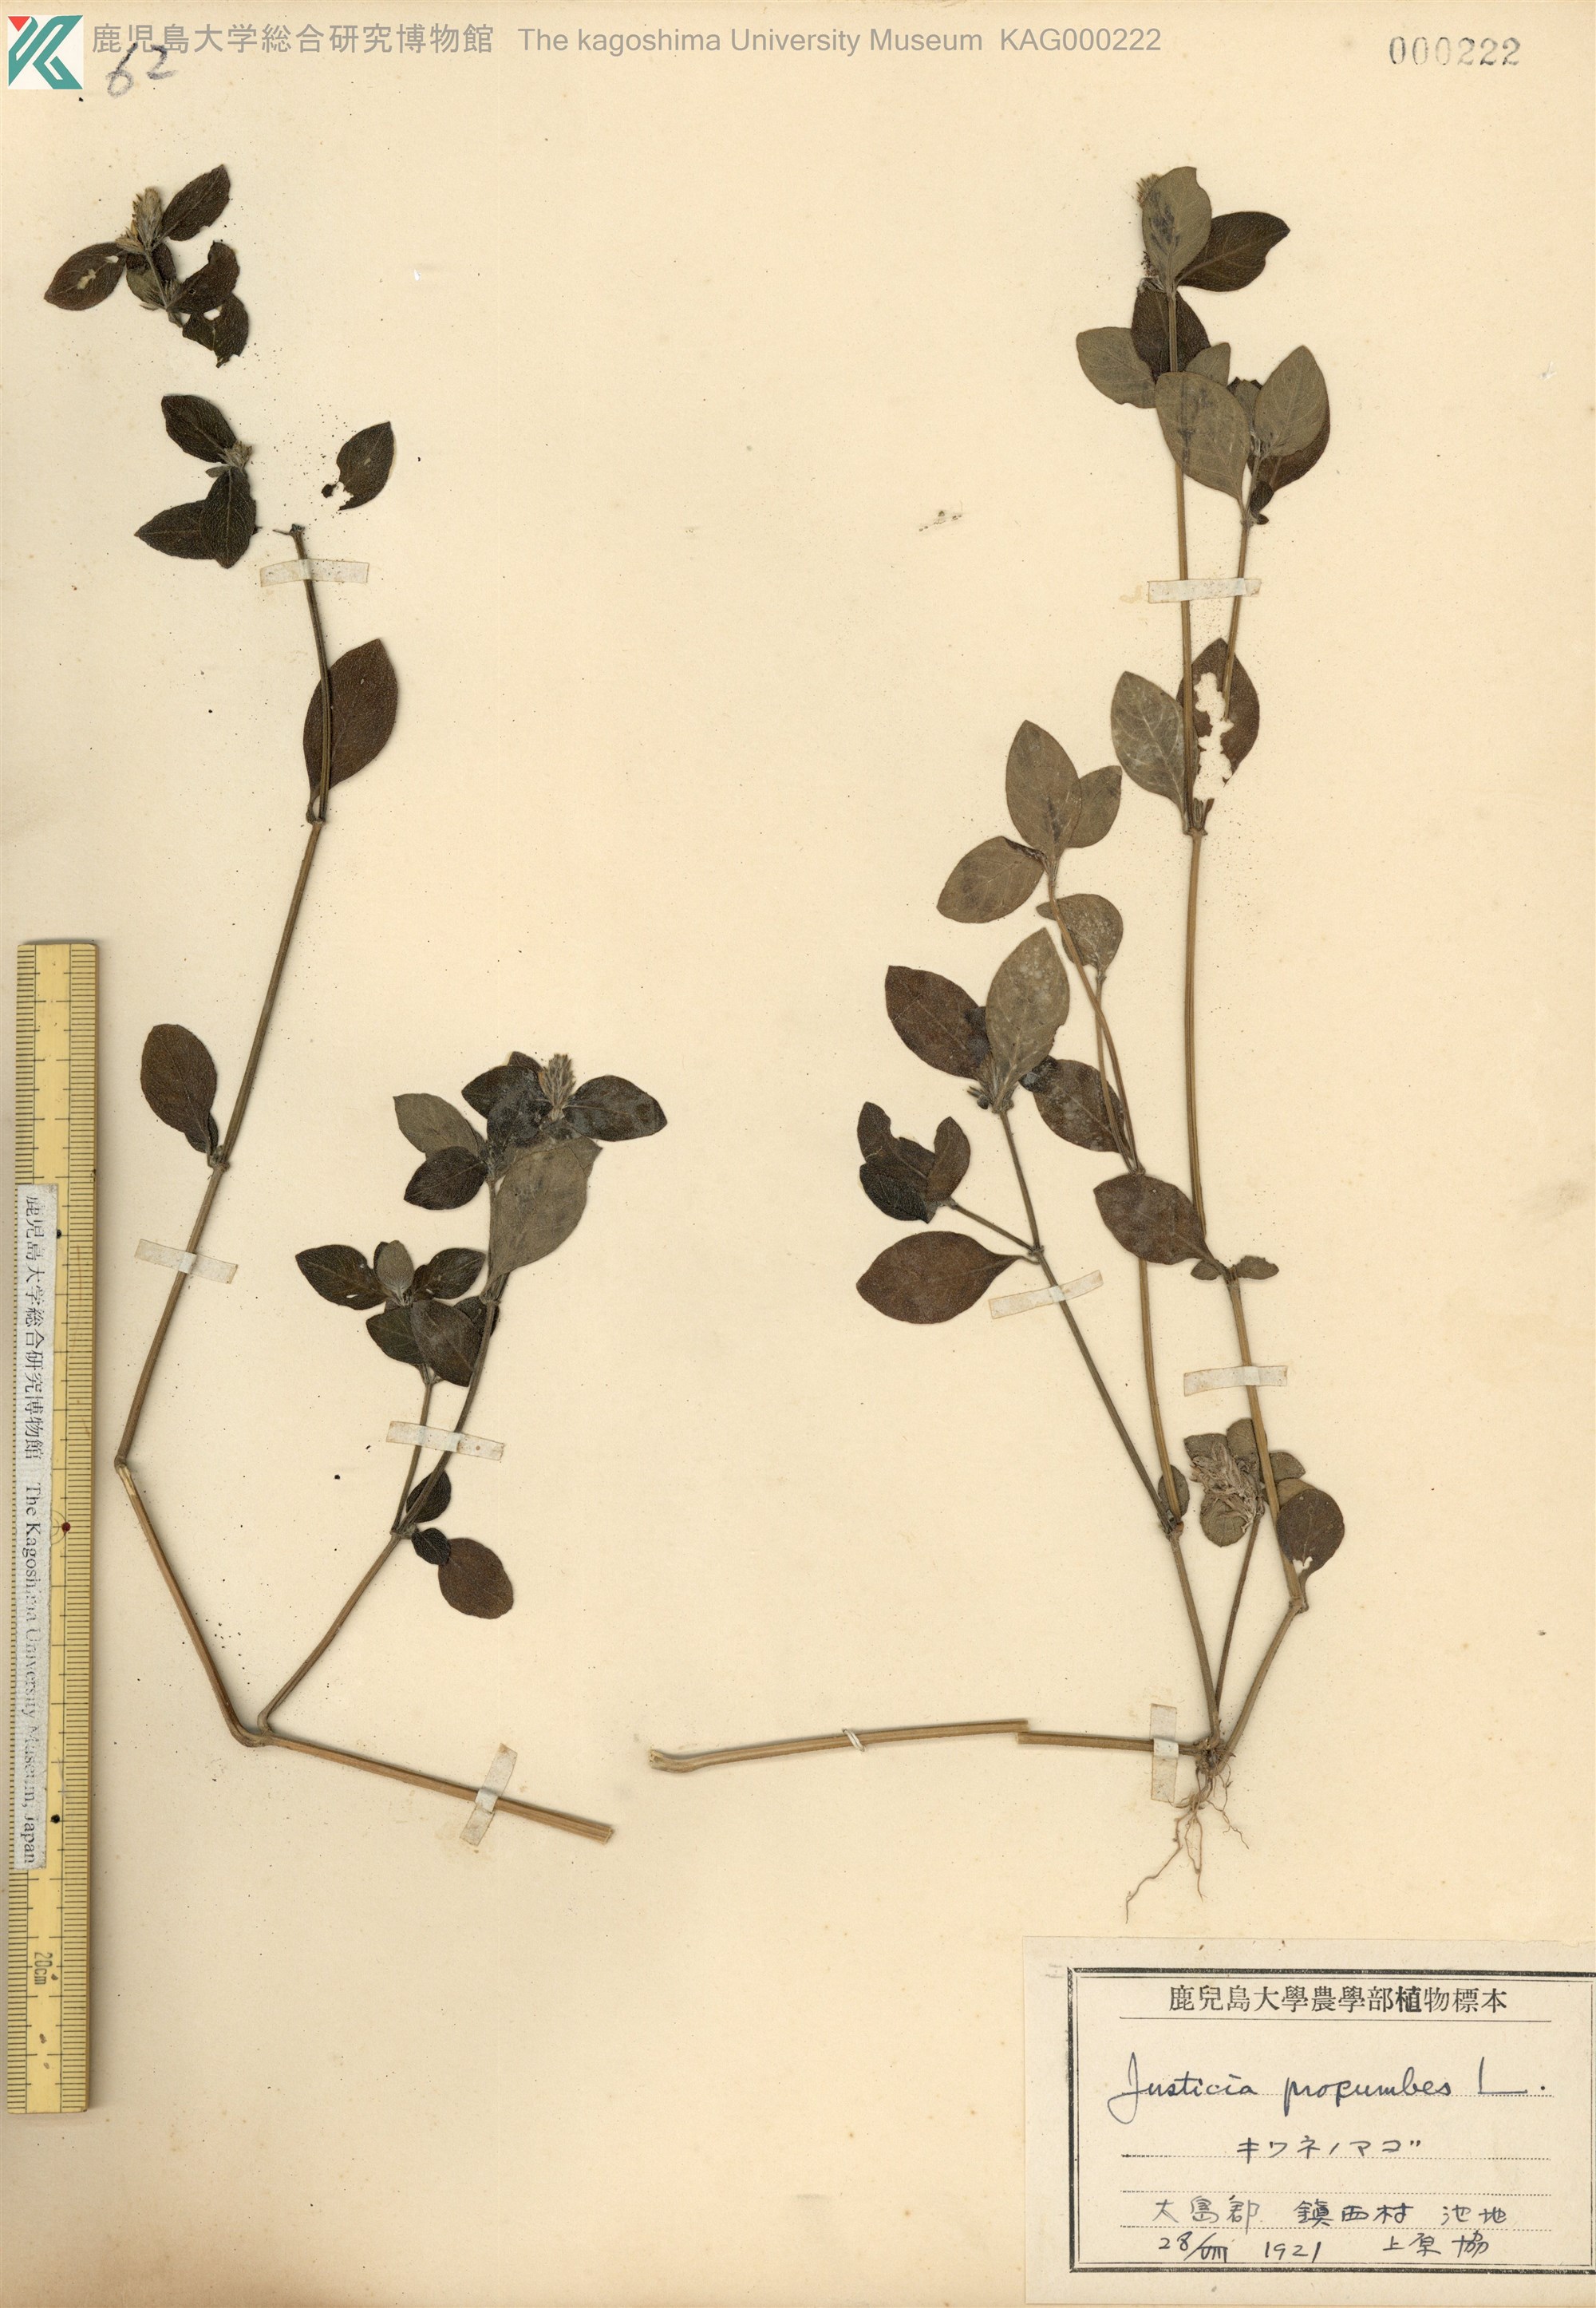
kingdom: Plantae
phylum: Tracheophyta
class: Magnoliopsida
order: Lamiales
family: Acanthaceae
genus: Rostellularia
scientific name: Rostellularia procumbens
